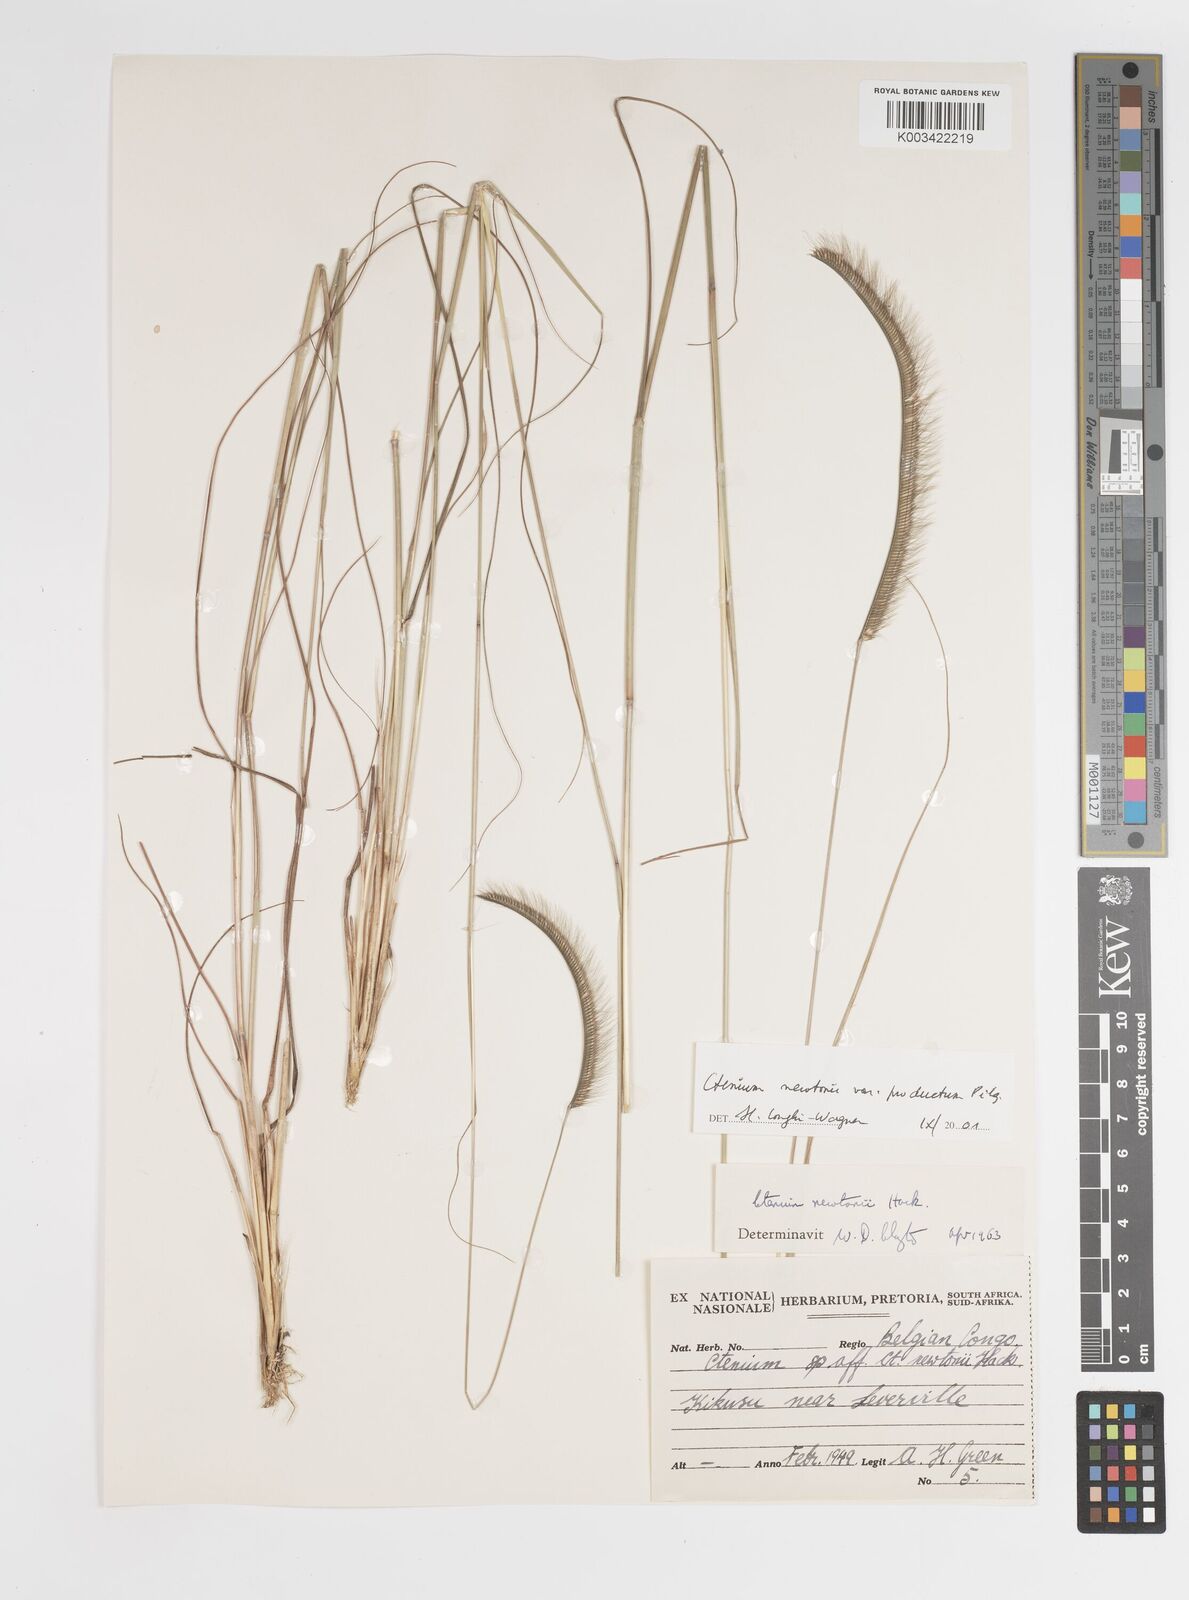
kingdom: Plantae
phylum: Tracheophyta
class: Liliopsida
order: Poales
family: Poaceae
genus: Ctenium
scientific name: Ctenium newtonii
